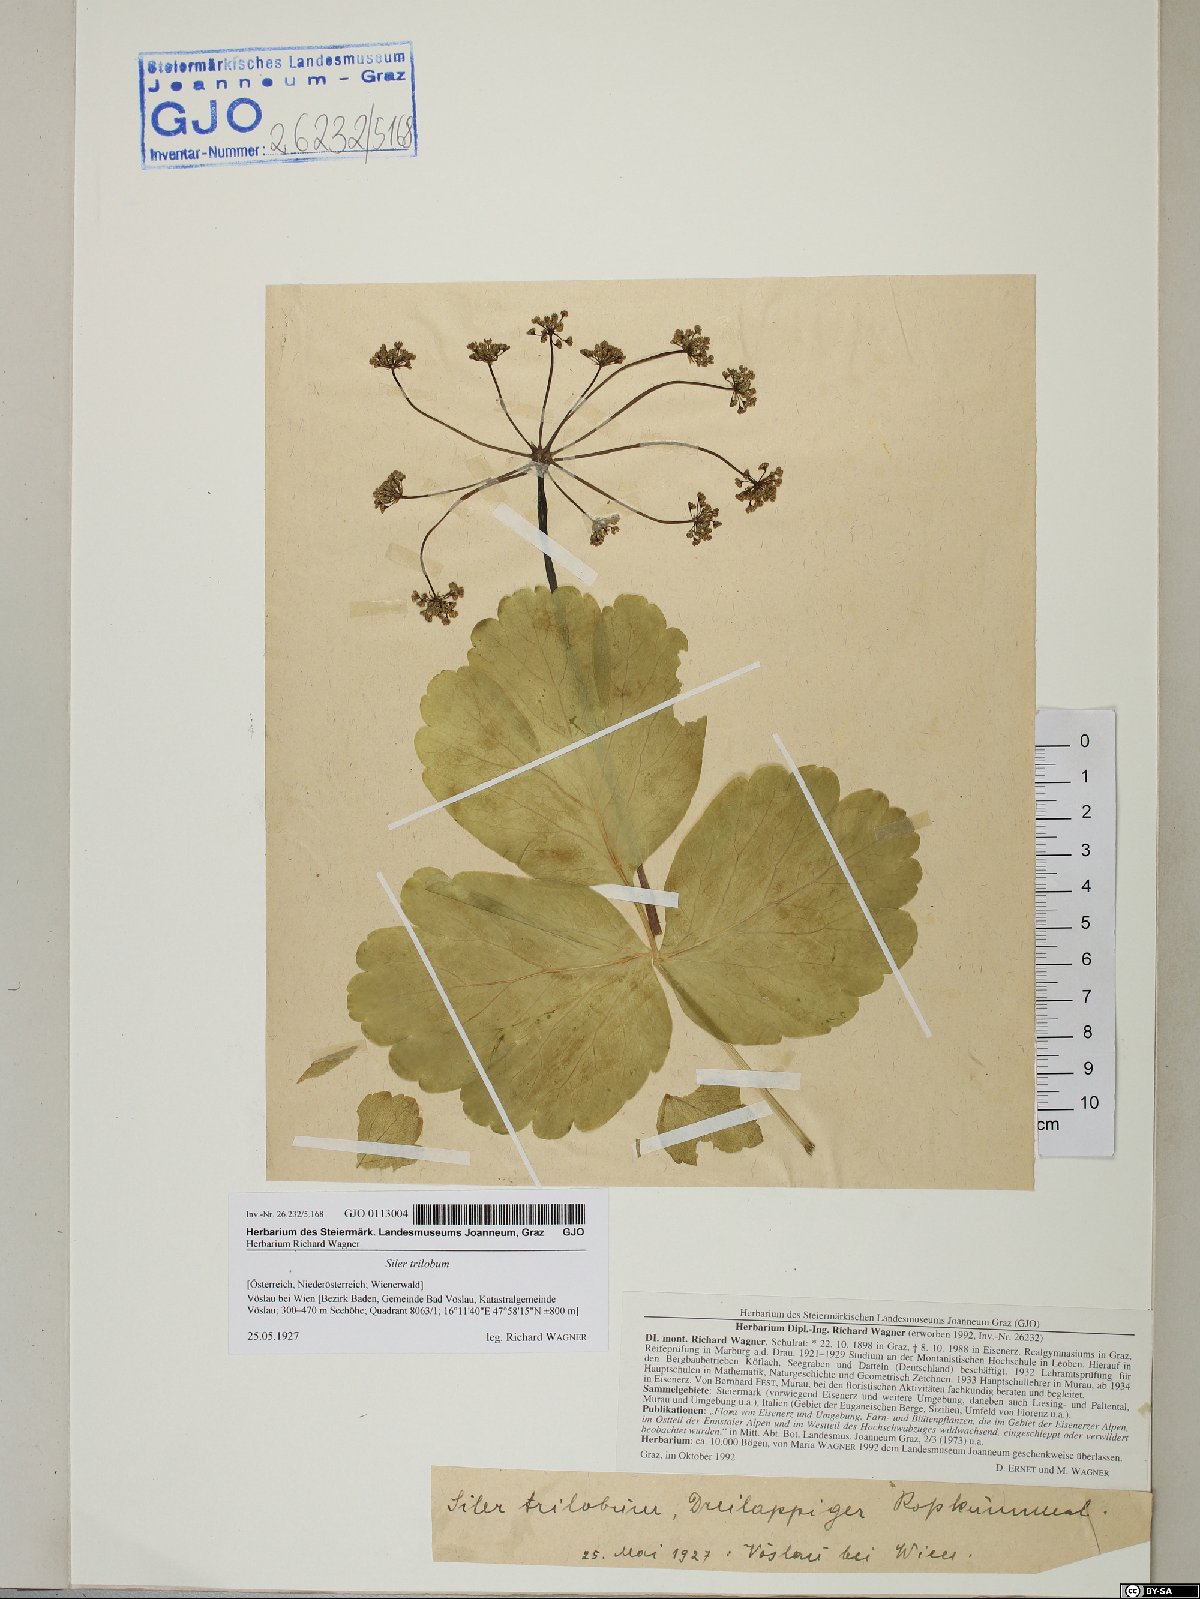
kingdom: Plantae
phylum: Tracheophyta
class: Magnoliopsida
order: Apiales
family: Apiaceae
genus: Laser
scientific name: Laser trilobum
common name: Laser
